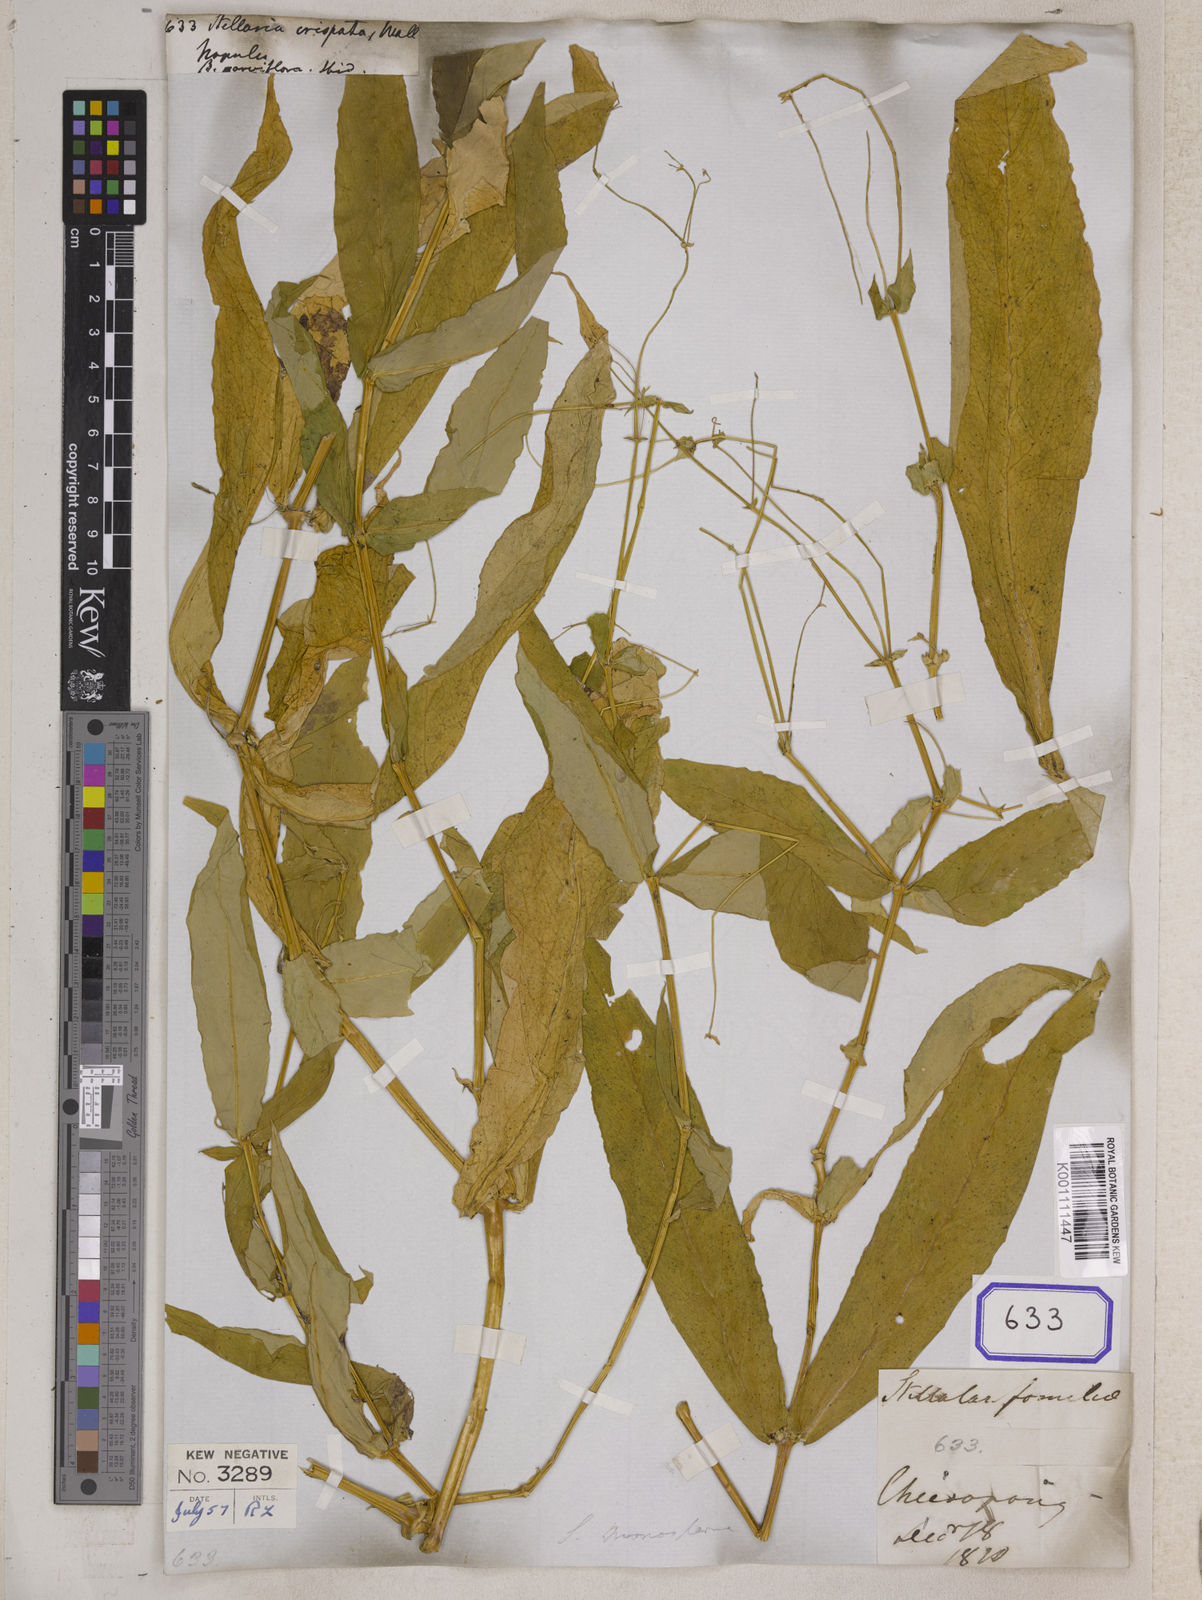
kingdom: Plantae
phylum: Tracheophyta
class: Magnoliopsida
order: Caryophyllales
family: Caryophyllaceae
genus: Stellaria
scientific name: Stellaria
